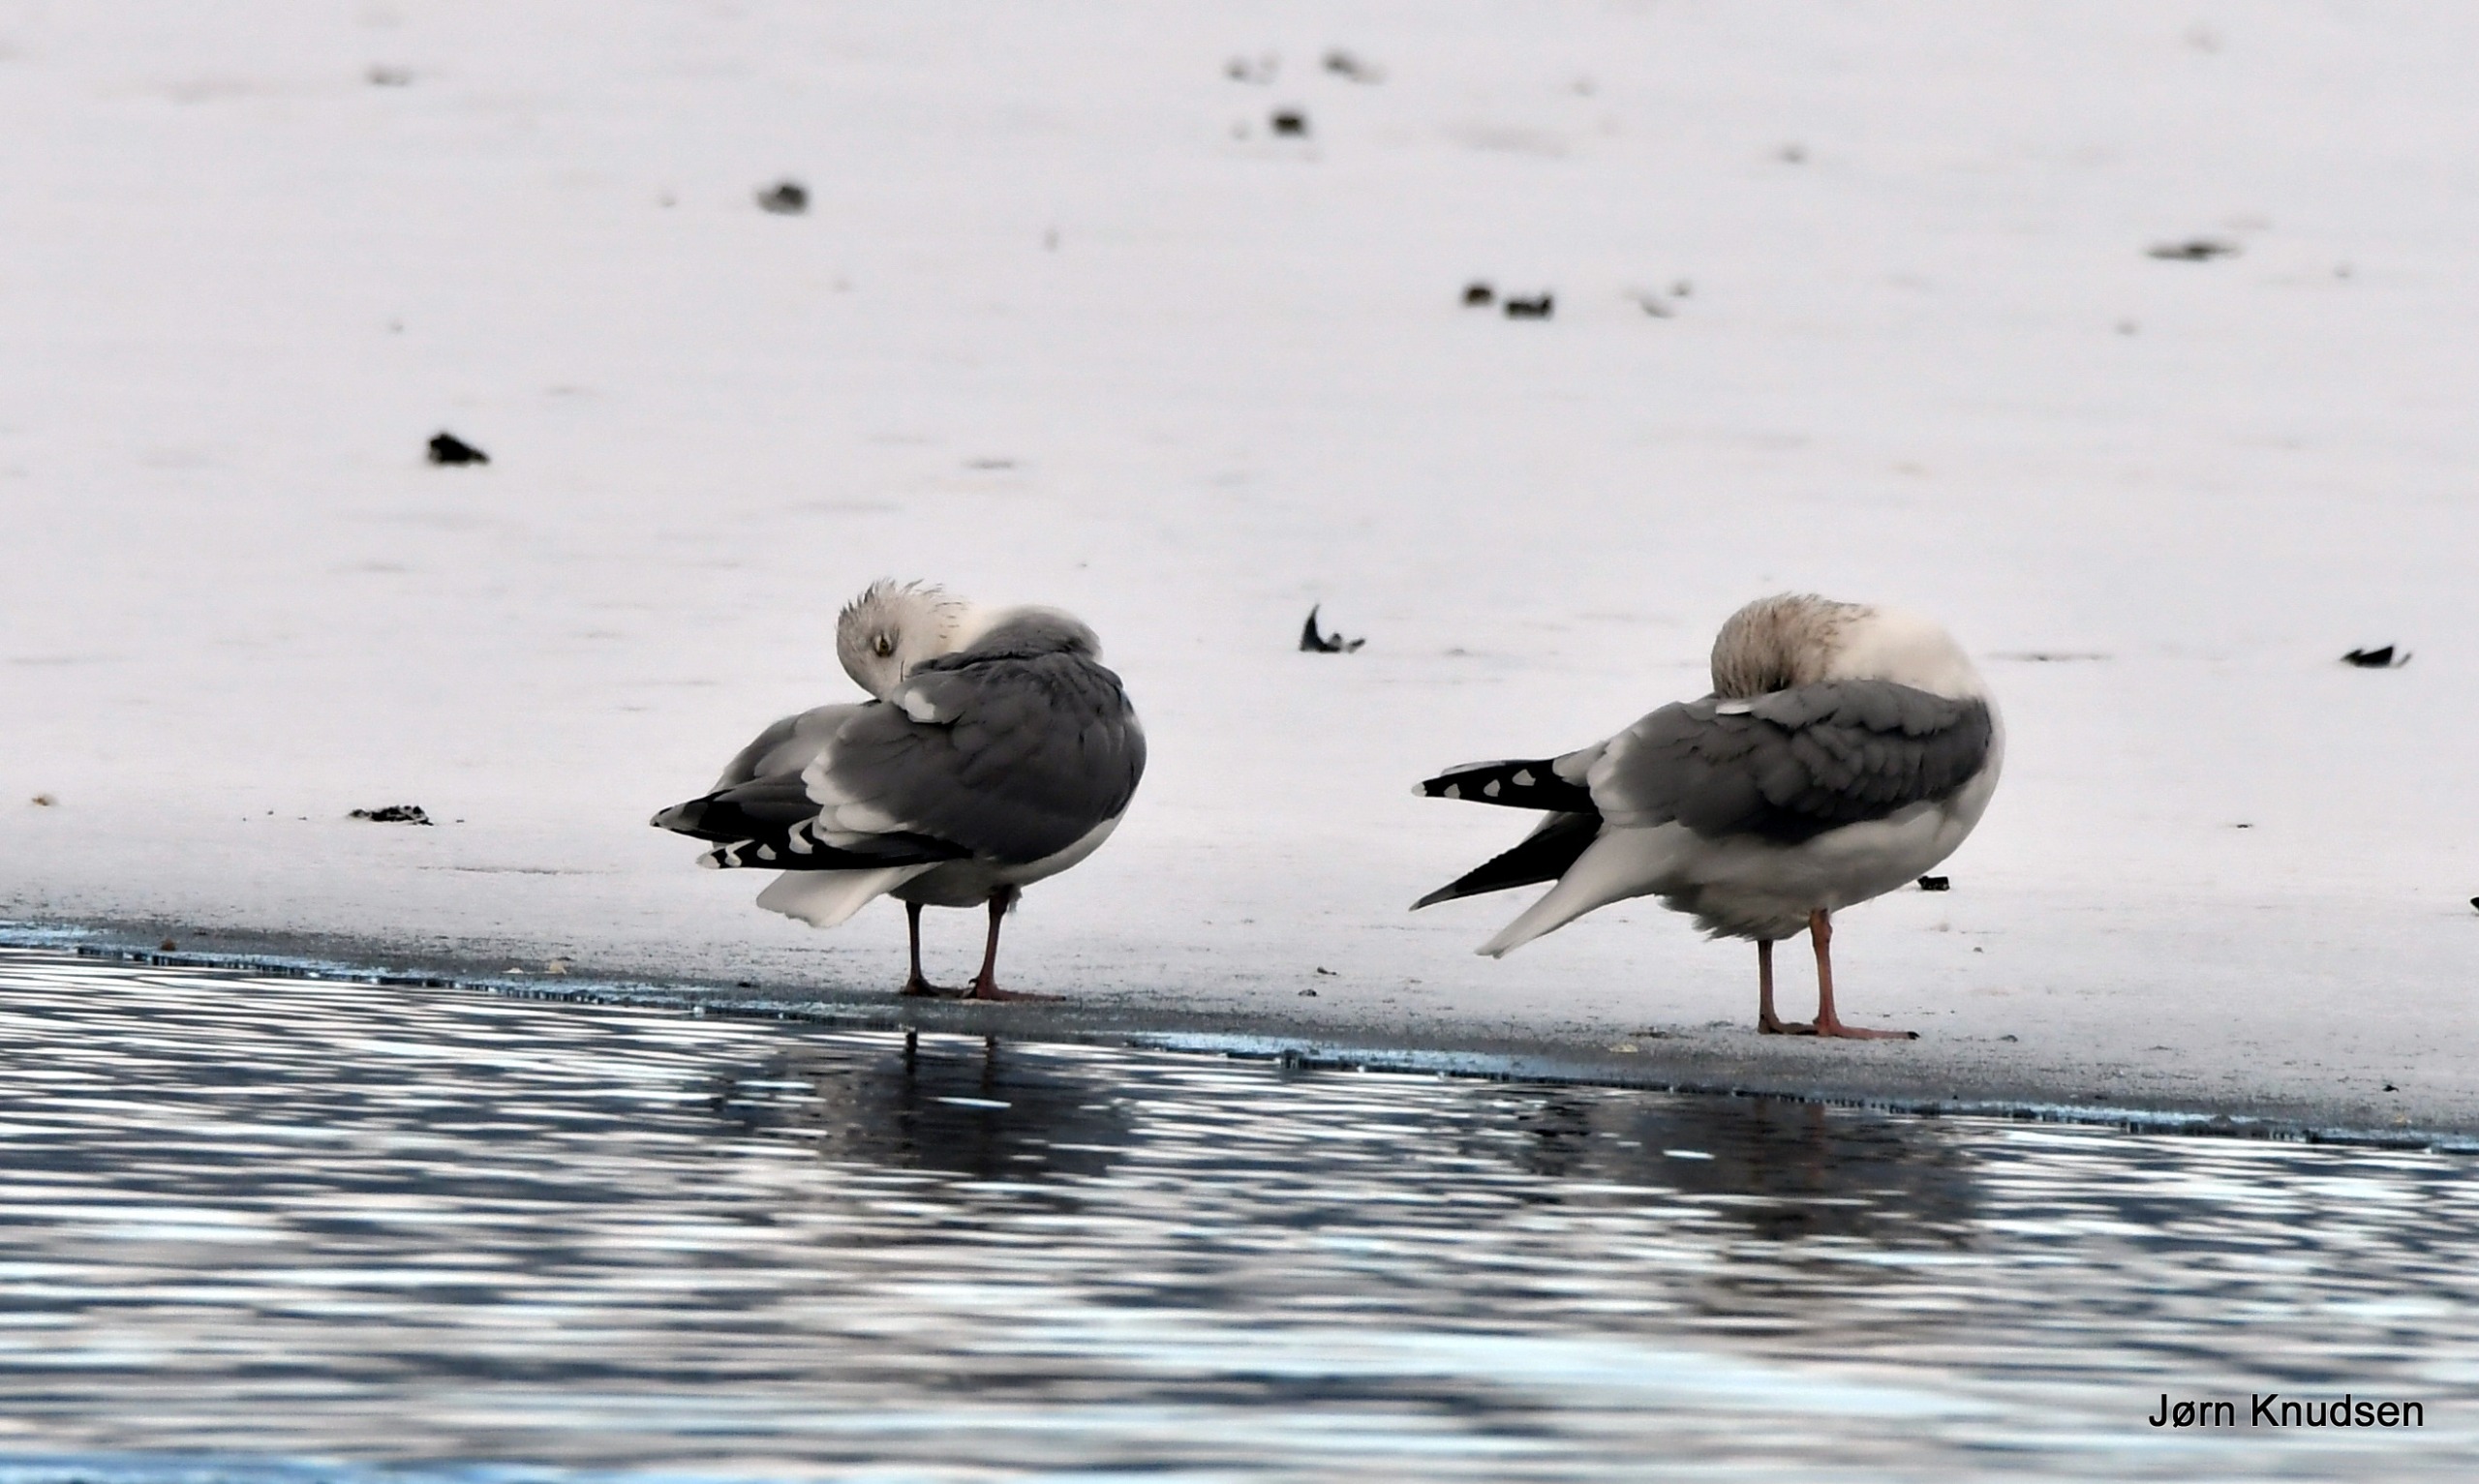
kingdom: Animalia
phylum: Chordata
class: Aves
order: Charadriiformes
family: Laridae
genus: Larus
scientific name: Larus argentatus
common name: Sølvmåge
